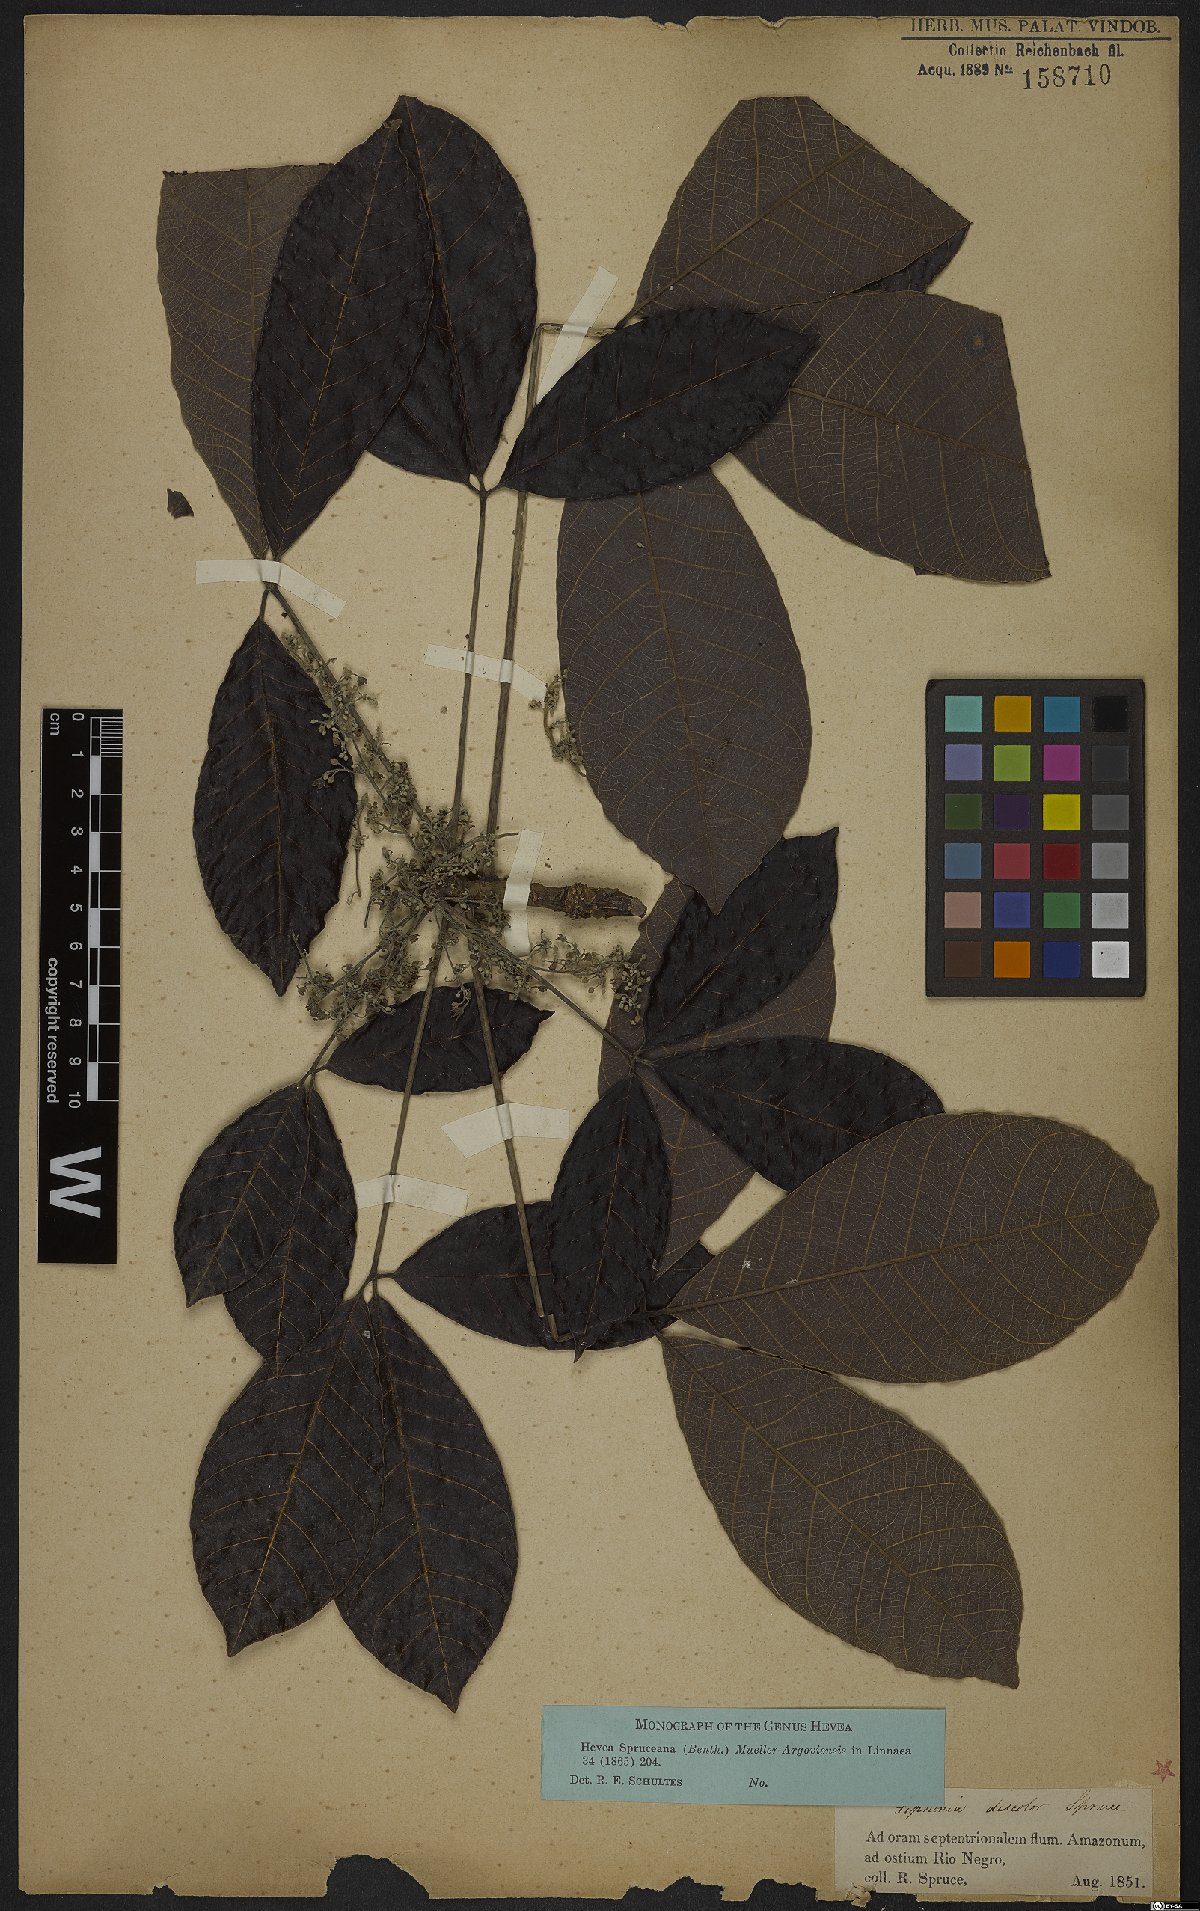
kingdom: Plantae
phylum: Tracheophyta
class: Magnoliopsida
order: Malpighiales
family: Euphorbiaceae
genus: Hevea
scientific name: Hevea spruceana
